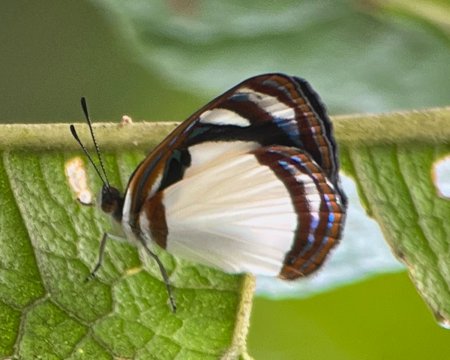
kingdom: Animalia
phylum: Arthropoda
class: Insecta
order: Lepidoptera
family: Nymphalidae
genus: Dynamine
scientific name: Dynamine athemon
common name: Ghost Sailor
